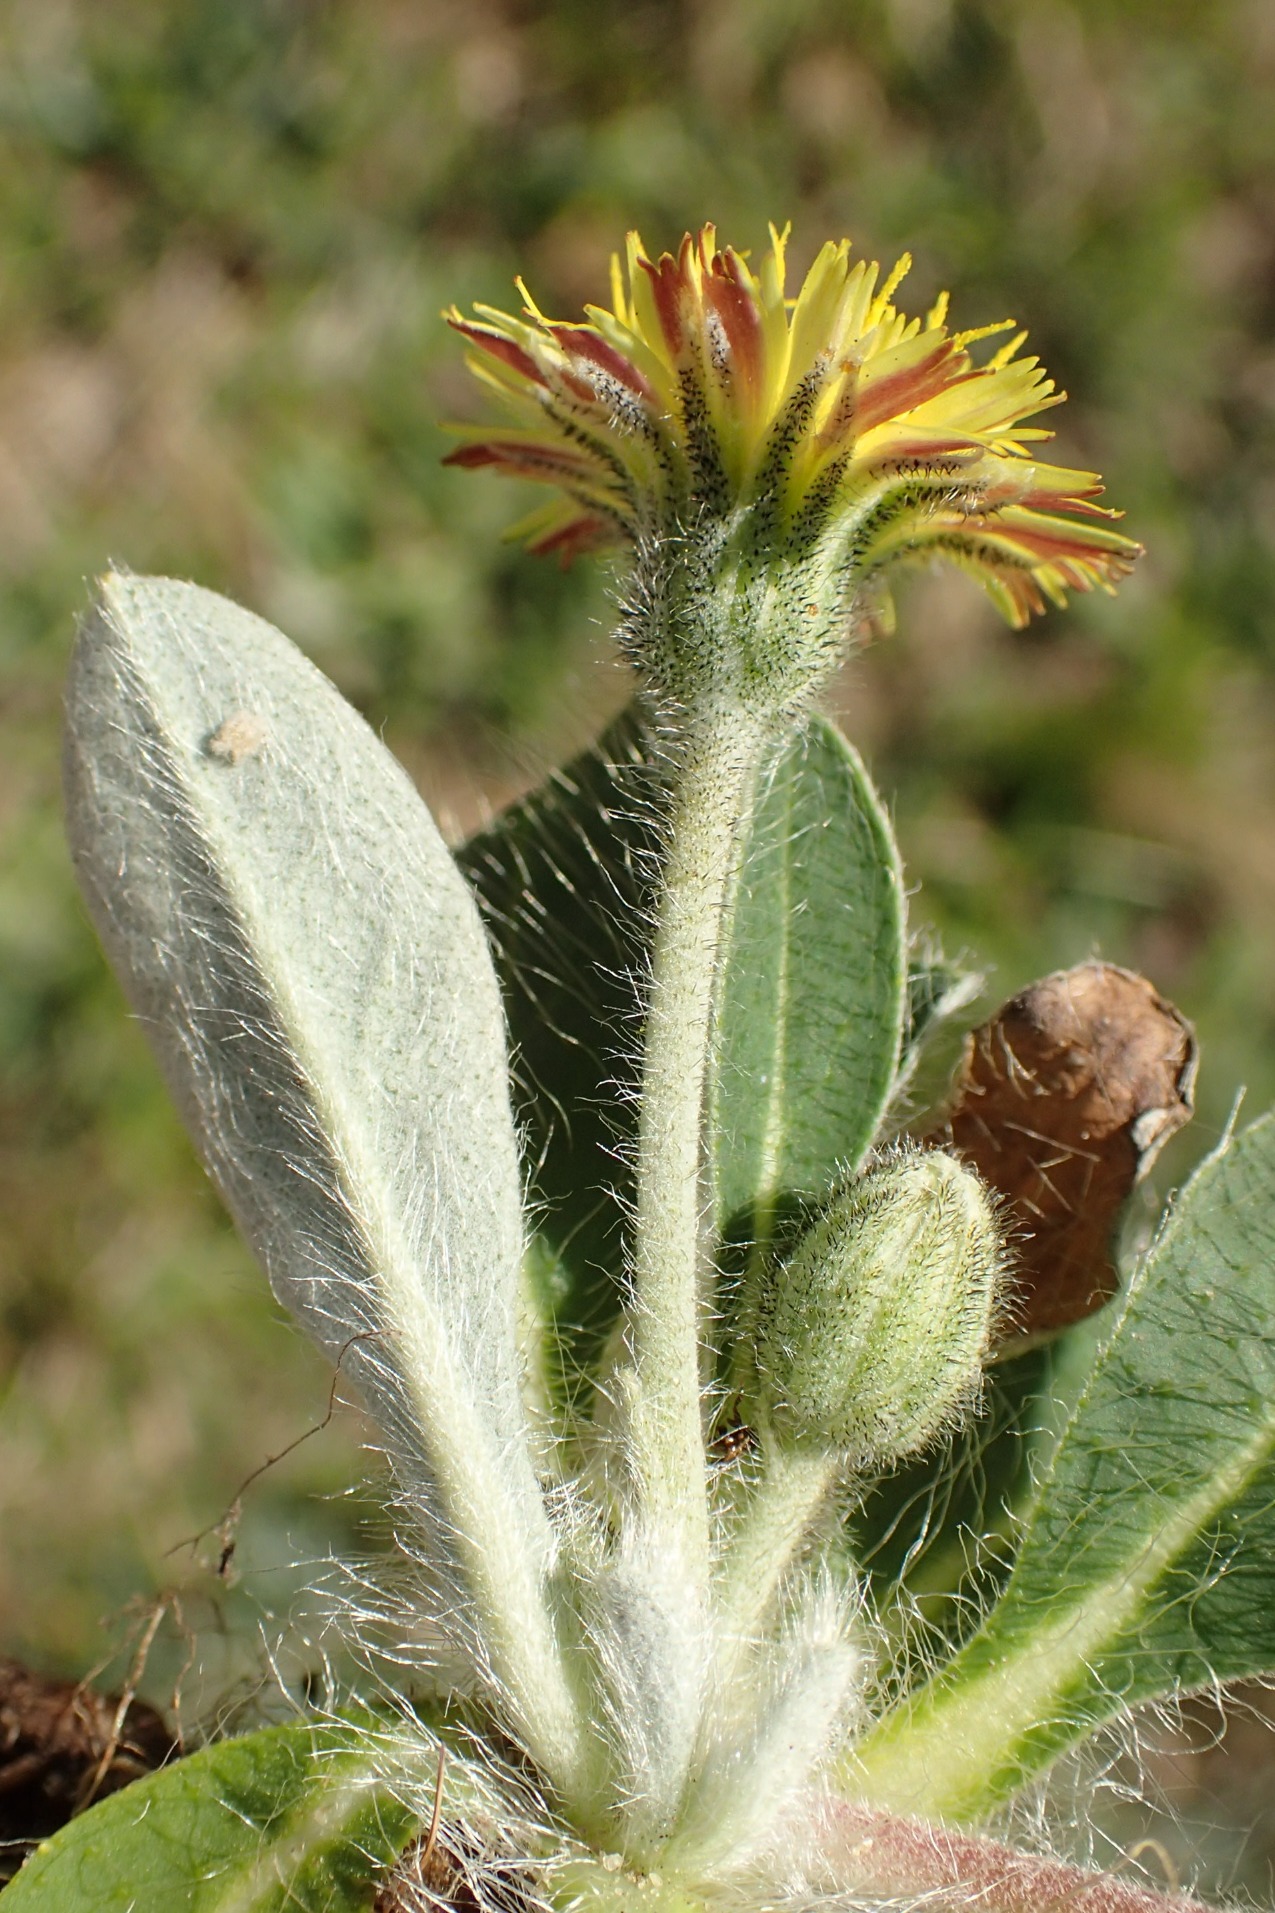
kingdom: Plantae
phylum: Tracheophyta
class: Magnoliopsida
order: Asterales
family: Asteraceae
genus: Pilosella
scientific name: Pilosella officinarum
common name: Håret høgeurt
